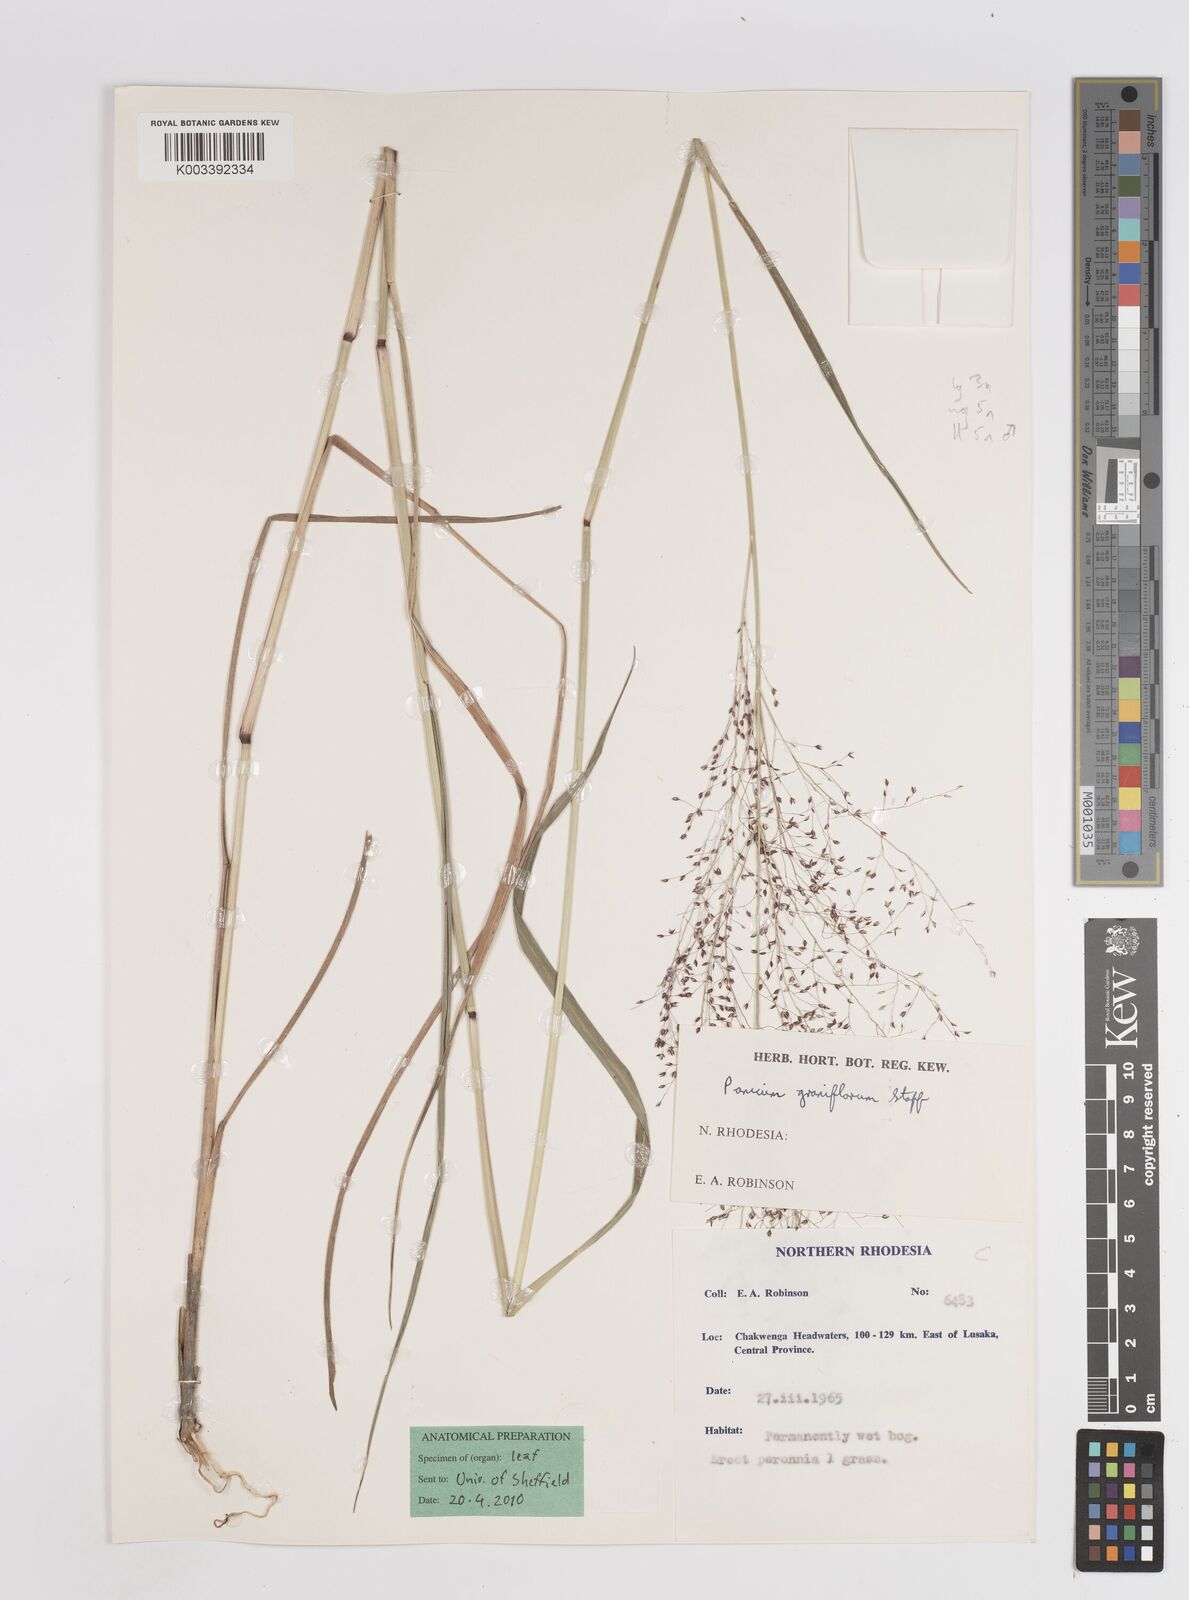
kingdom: Plantae
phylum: Tracheophyta
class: Liliopsida
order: Poales
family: Poaceae
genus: Panicum
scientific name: Panicum graciliflorum
